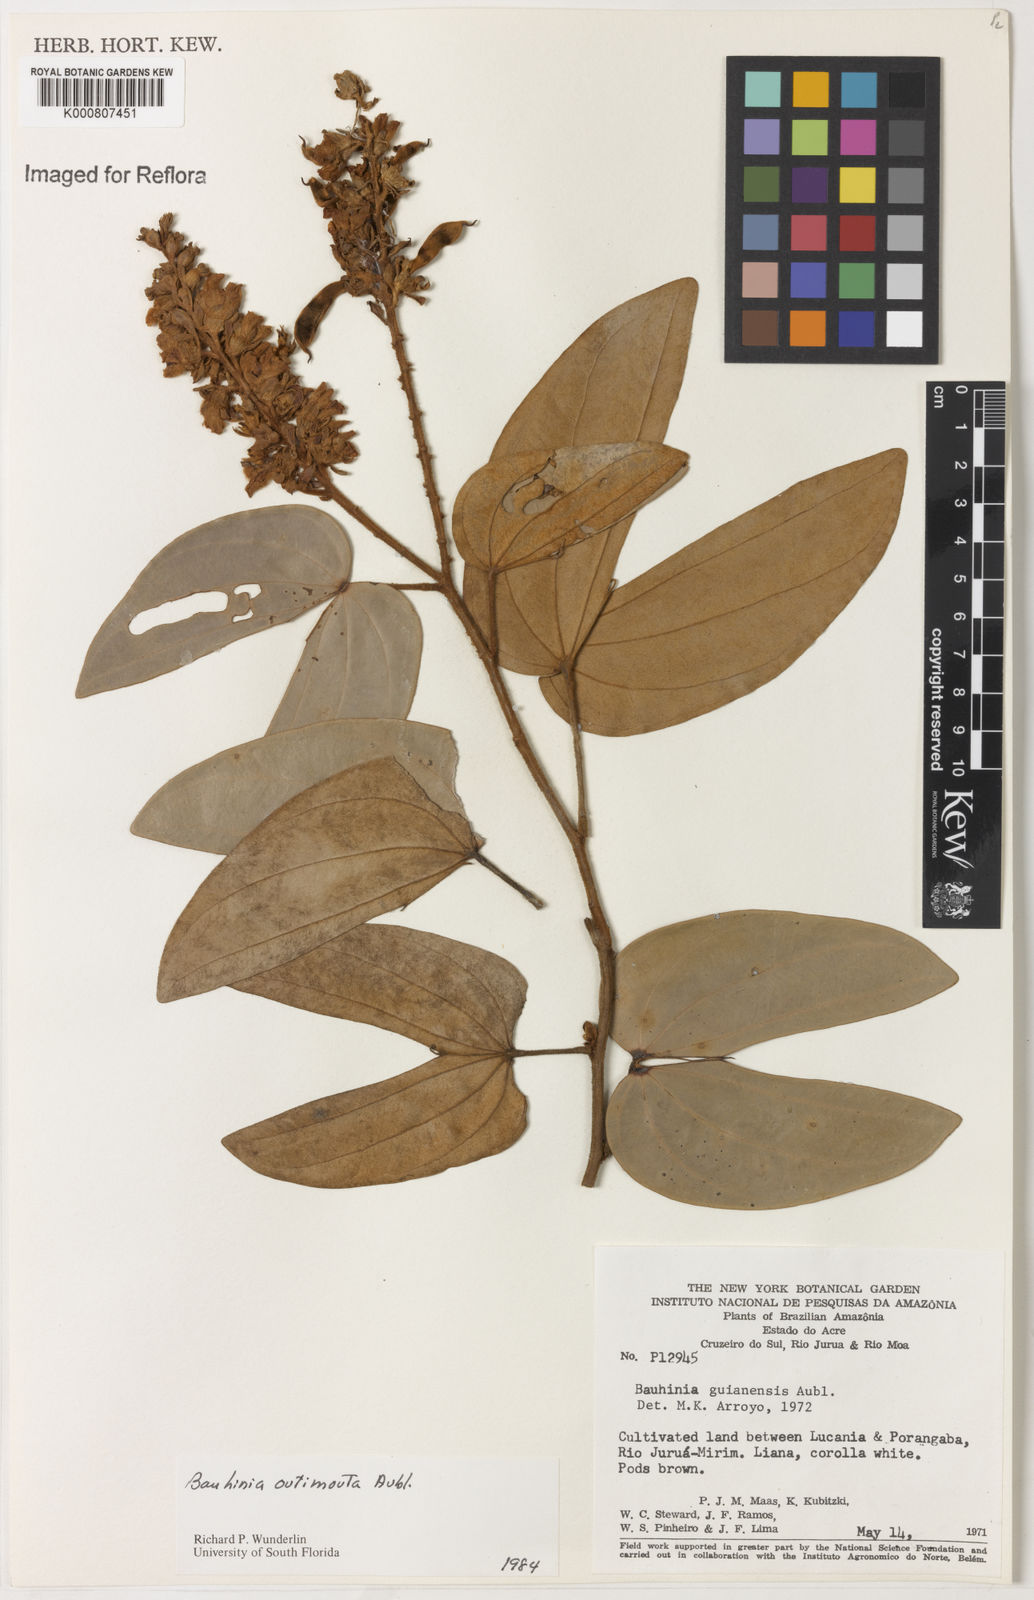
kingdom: Plantae
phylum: Tracheophyta
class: Magnoliopsida
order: Fabales
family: Fabaceae
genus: Schnella
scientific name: Schnella outimouta
